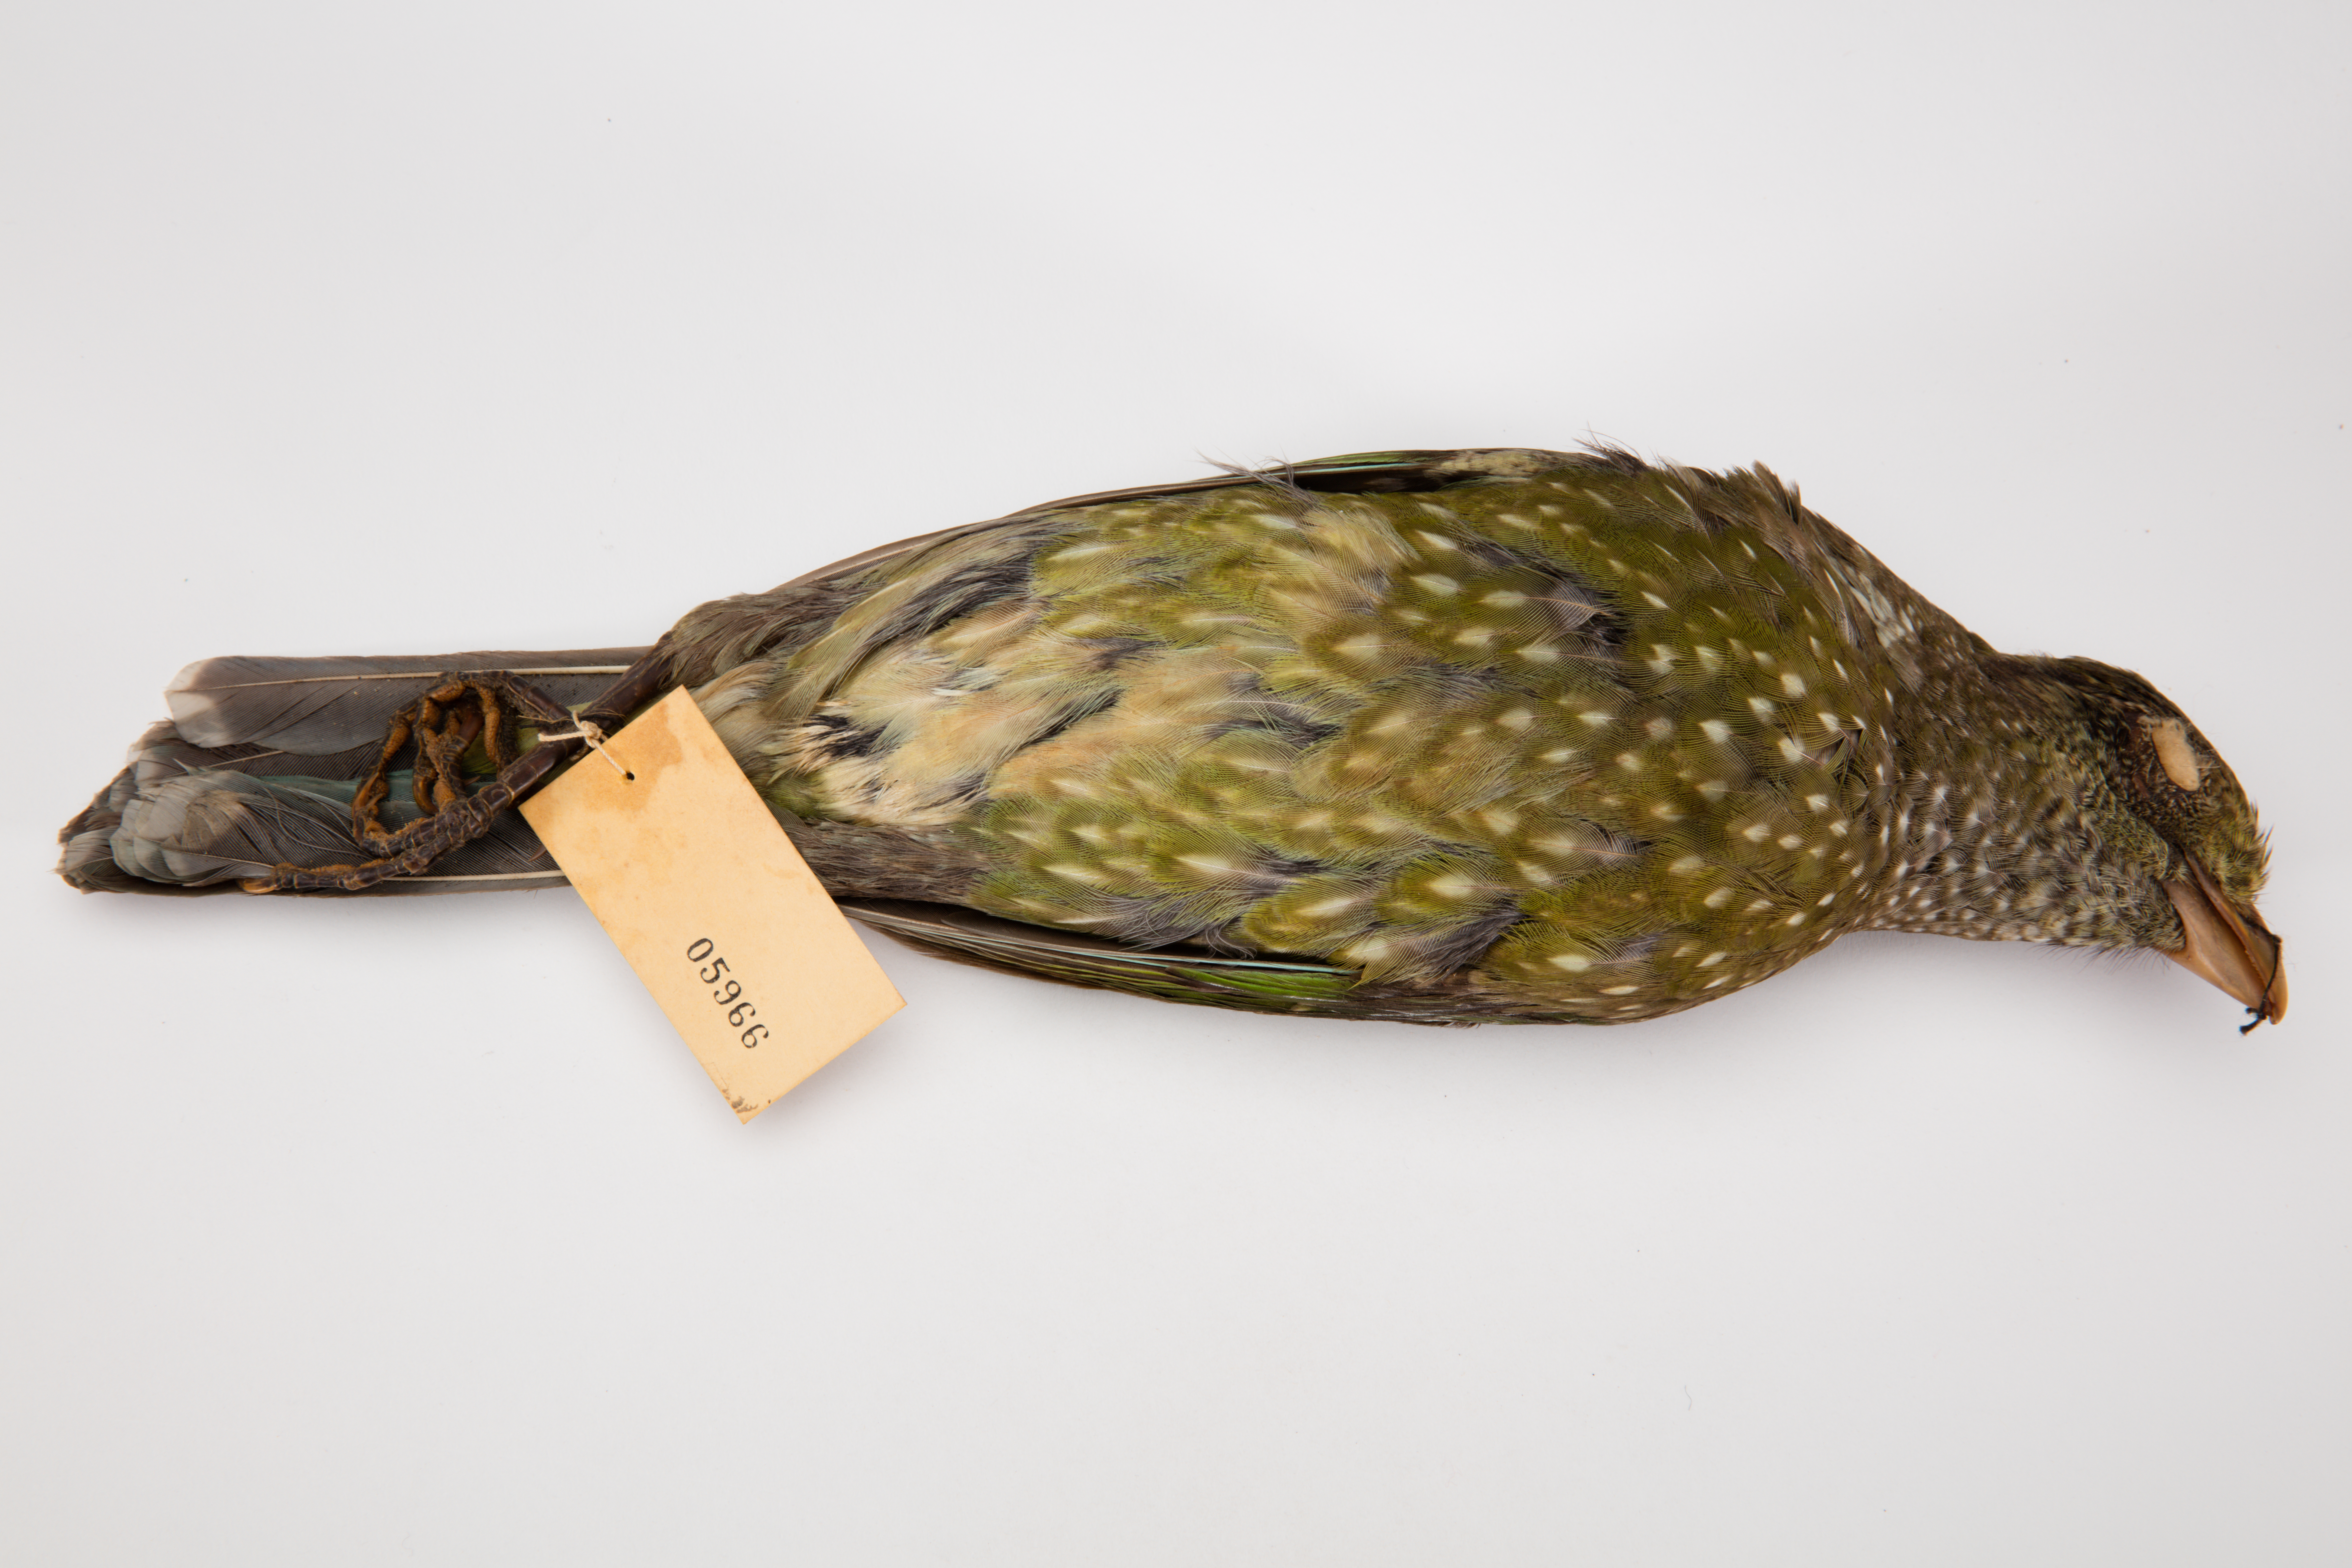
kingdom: Animalia
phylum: Chordata
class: Aves
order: Passeriformes
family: Ptilonorhynchidae
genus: Ailuroedus
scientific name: Ailuroedus crassirostris
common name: Green catbird
